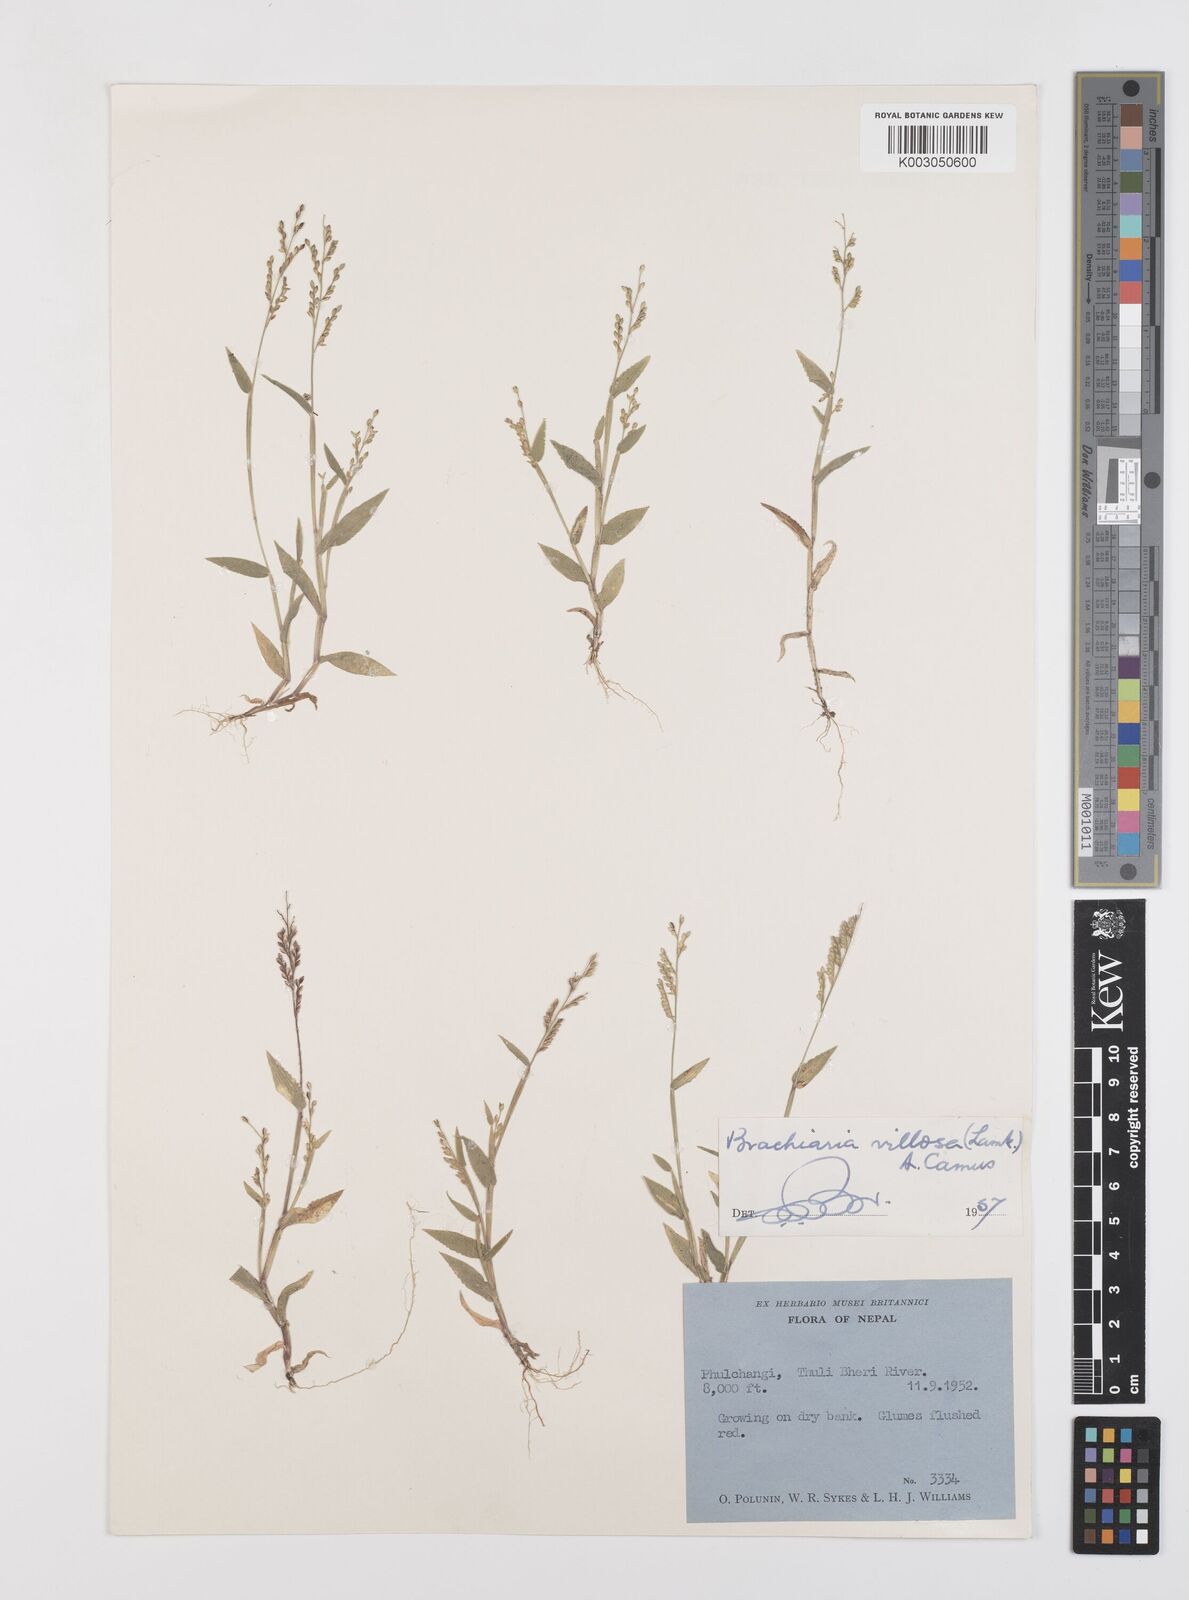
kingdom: Plantae
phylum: Tracheophyta
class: Liliopsida
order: Poales
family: Poaceae
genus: Urochloa
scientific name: Urochloa villosa
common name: Hairy signalgrass
